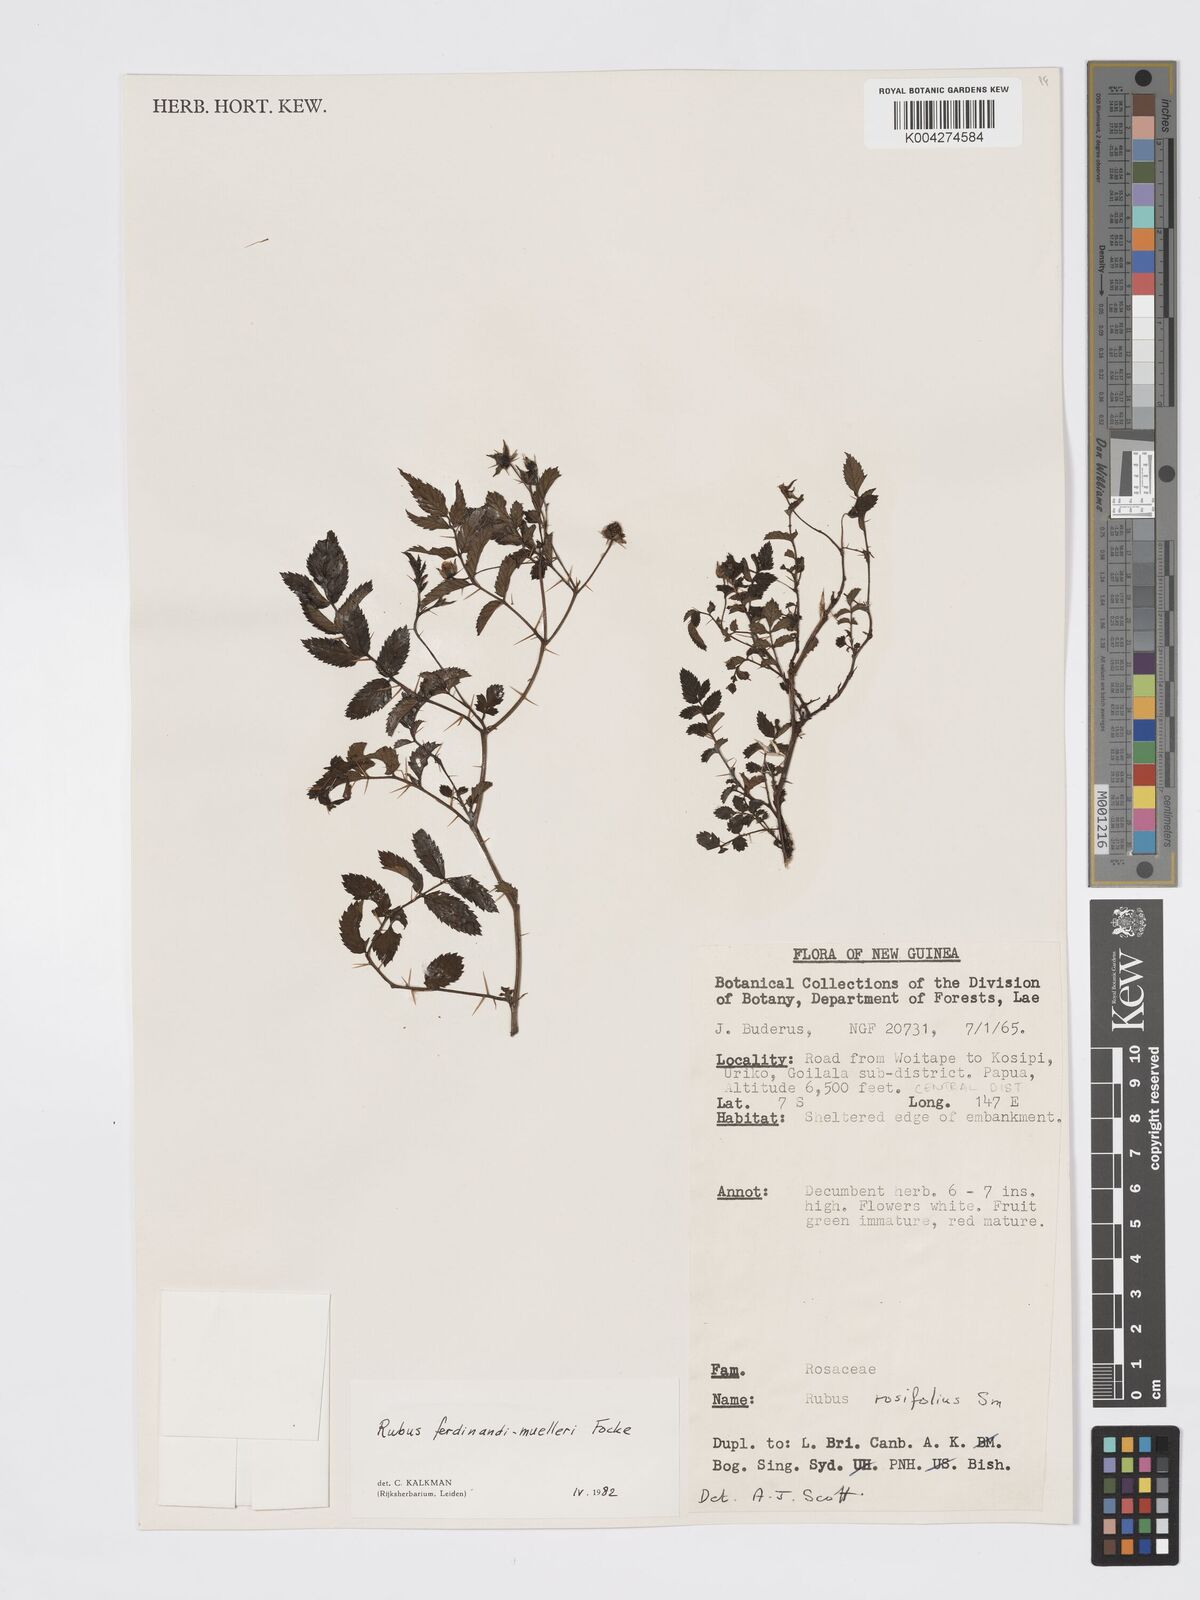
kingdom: Plantae
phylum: Tracheophyta
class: Magnoliopsida
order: Rosales
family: Rosaceae
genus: Rubus
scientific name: Rubus ferdinandimuelleri
